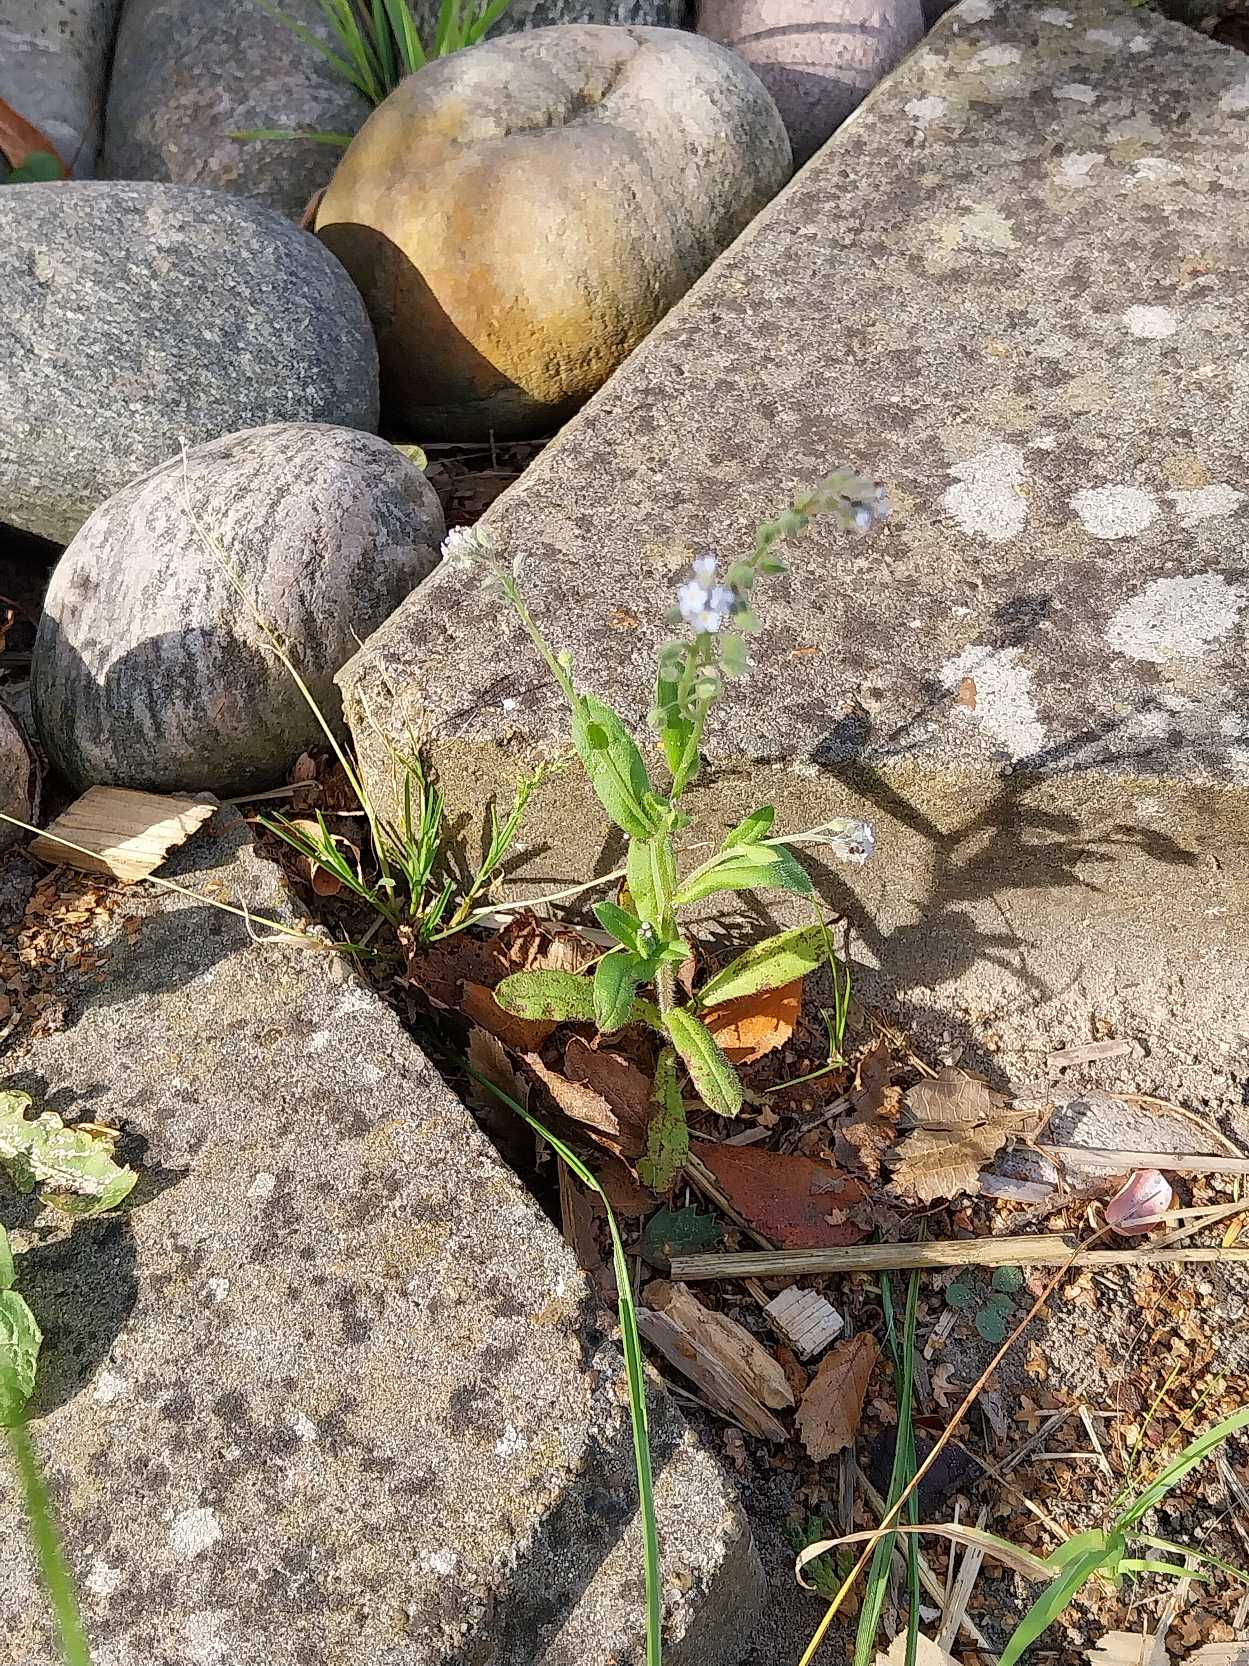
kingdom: Plantae
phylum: Tracheophyta
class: Magnoliopsida
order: Boraginales
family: Boraginaceae
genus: Myosotis
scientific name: Myosotis arvensis
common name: Mark-forglemmigej
